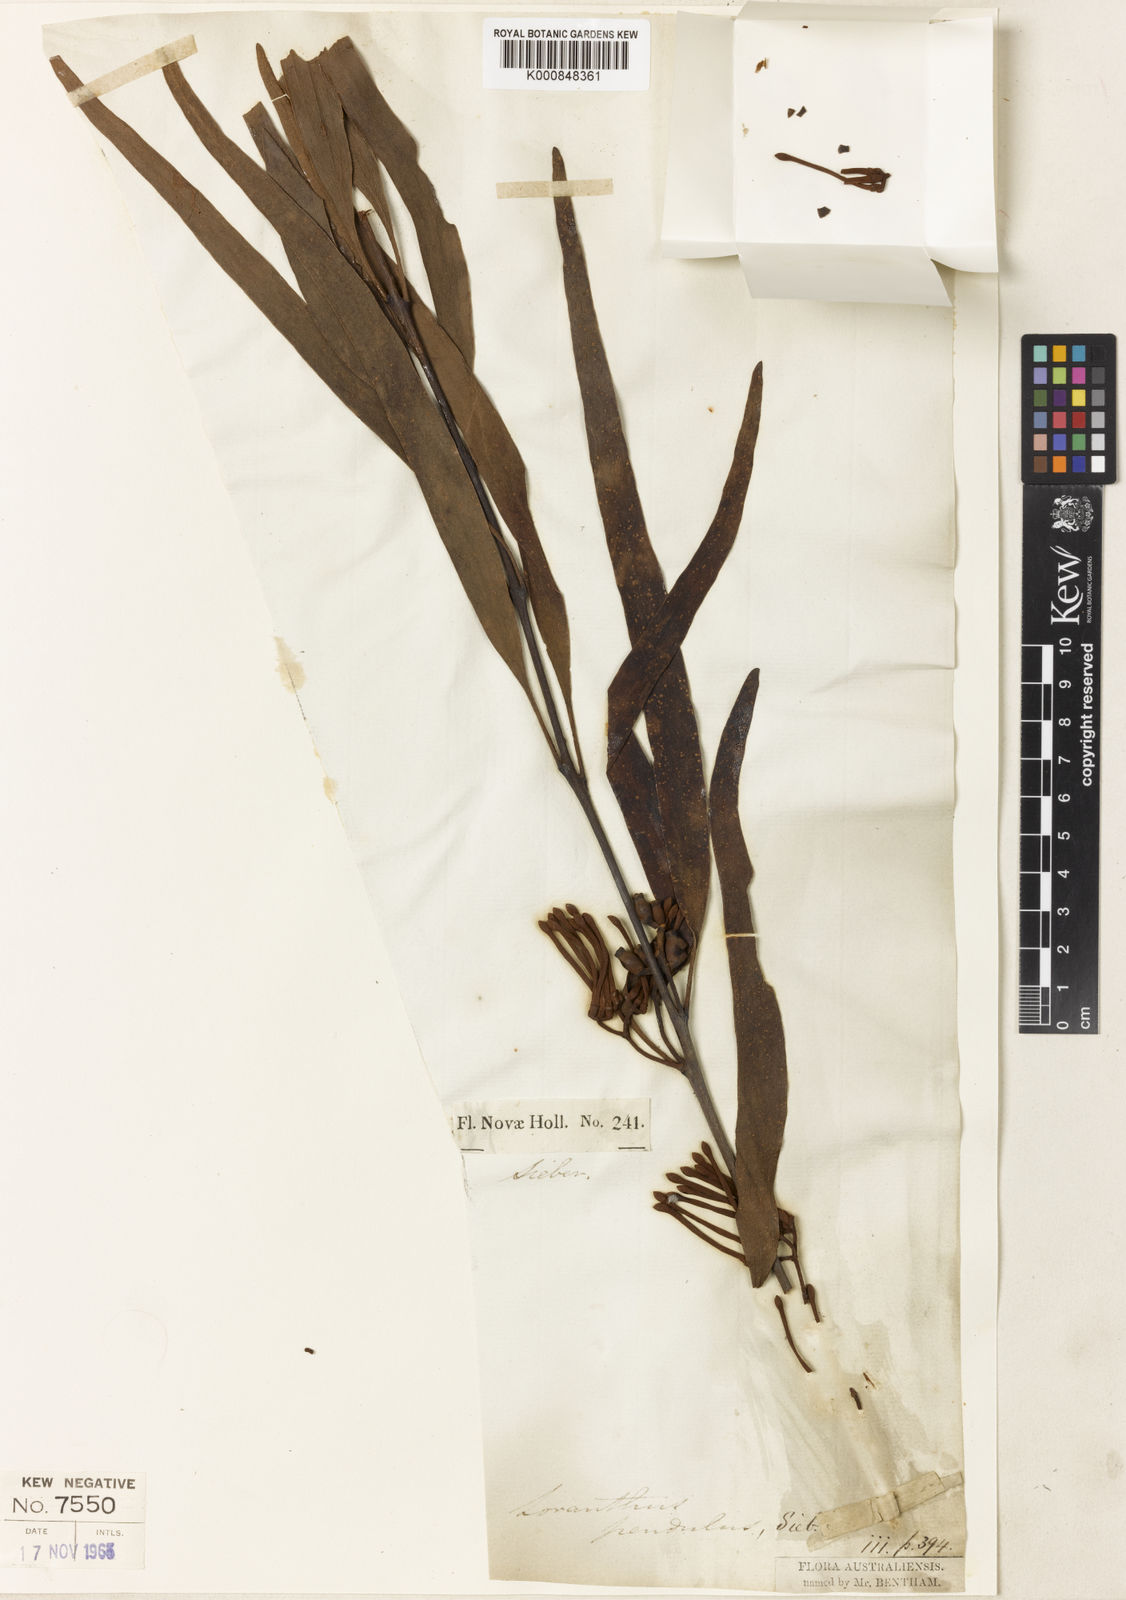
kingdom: Plantae
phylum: Tracheophyta
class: Magnoliopsida
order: Santalales
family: Loranthaceae
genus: Amyema
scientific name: Amyema pendula
